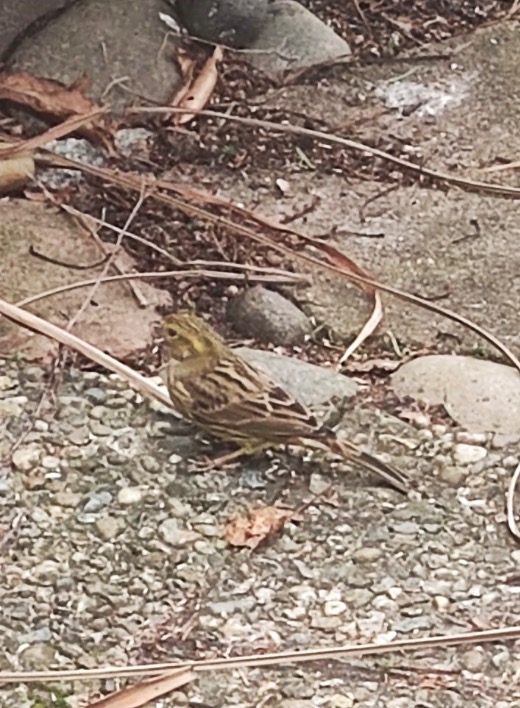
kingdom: Animalia
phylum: Chordata
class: Aves
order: Passeriformes
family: Emberizidae
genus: Emberiza
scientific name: Emberiza citrinella
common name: Gulspurv
